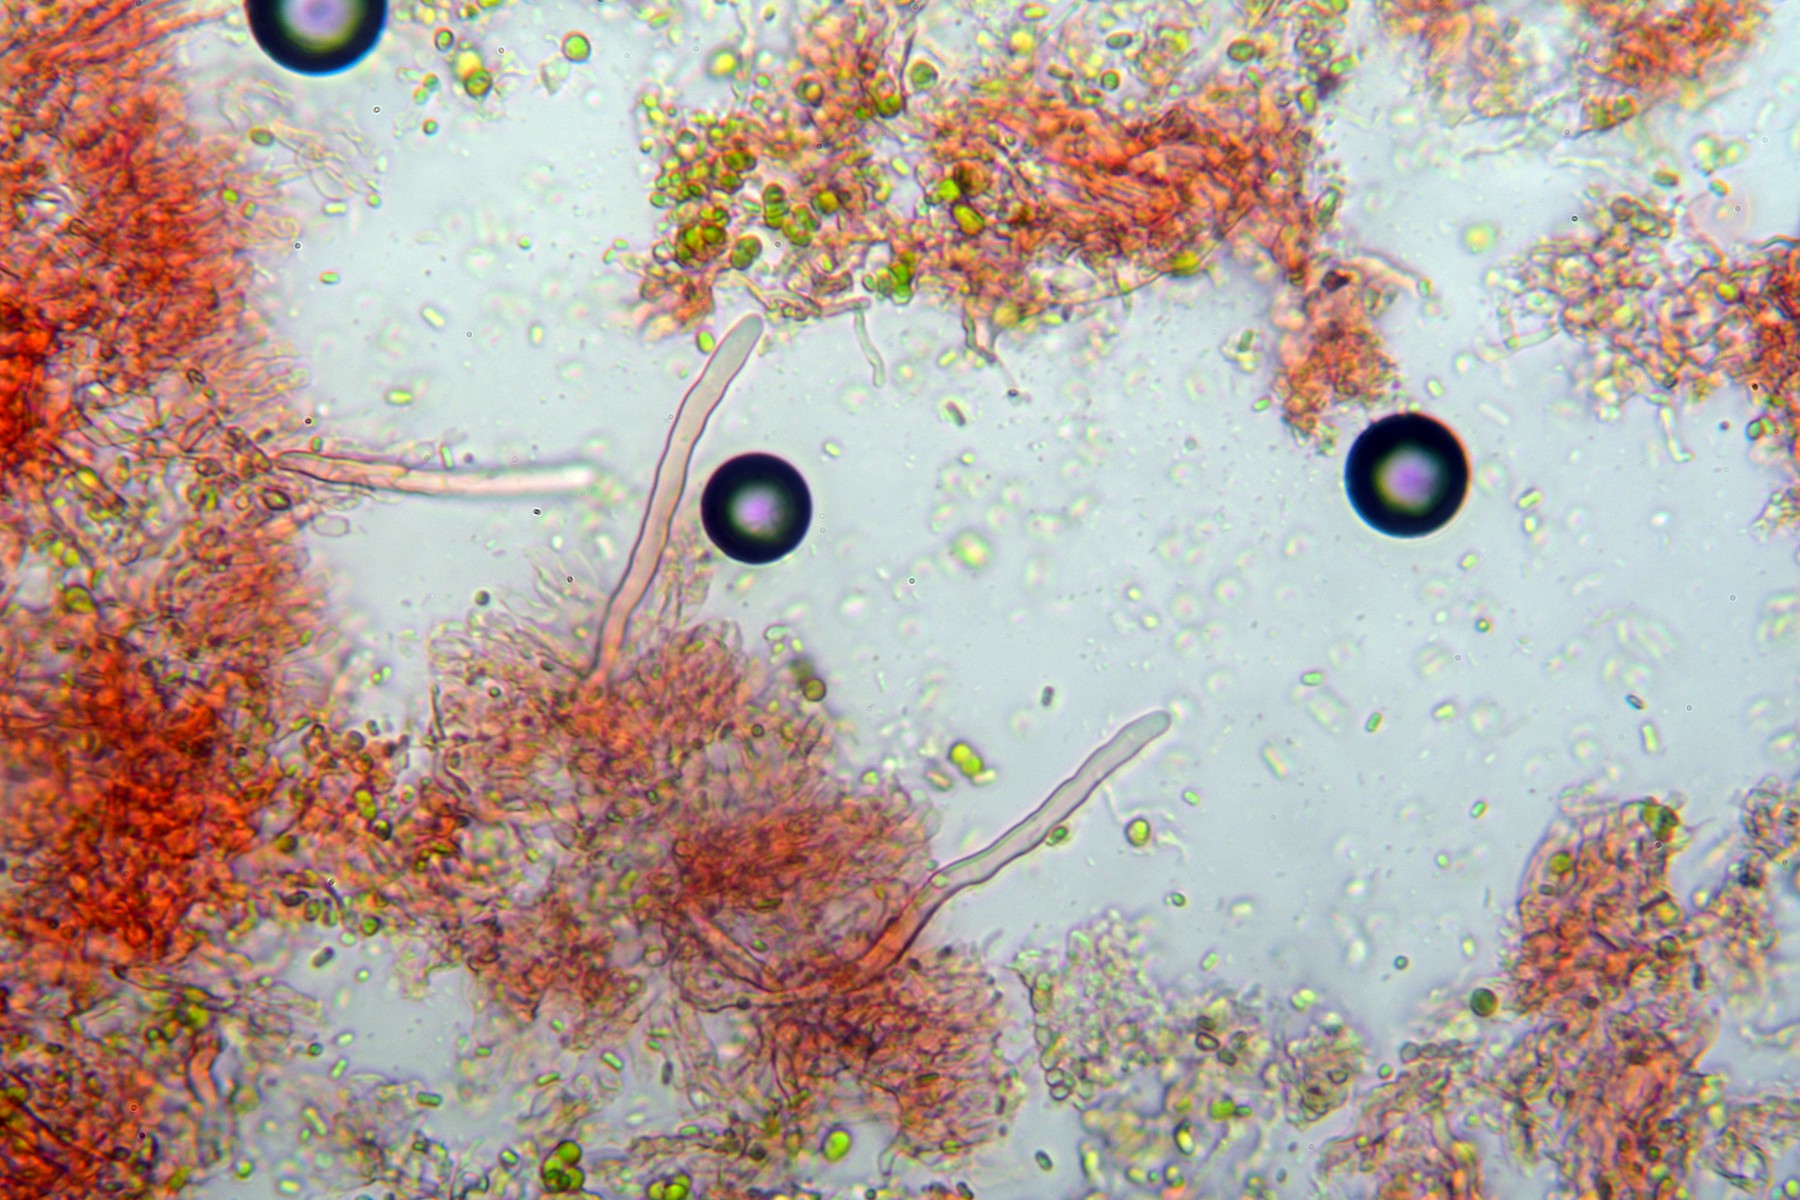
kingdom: Fungi
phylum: Basidiomycota
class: Agaricomycetes
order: Hymenochaetales
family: Hyphodontiaceae
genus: Kneiffiella
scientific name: Kneiffiella cineracea
